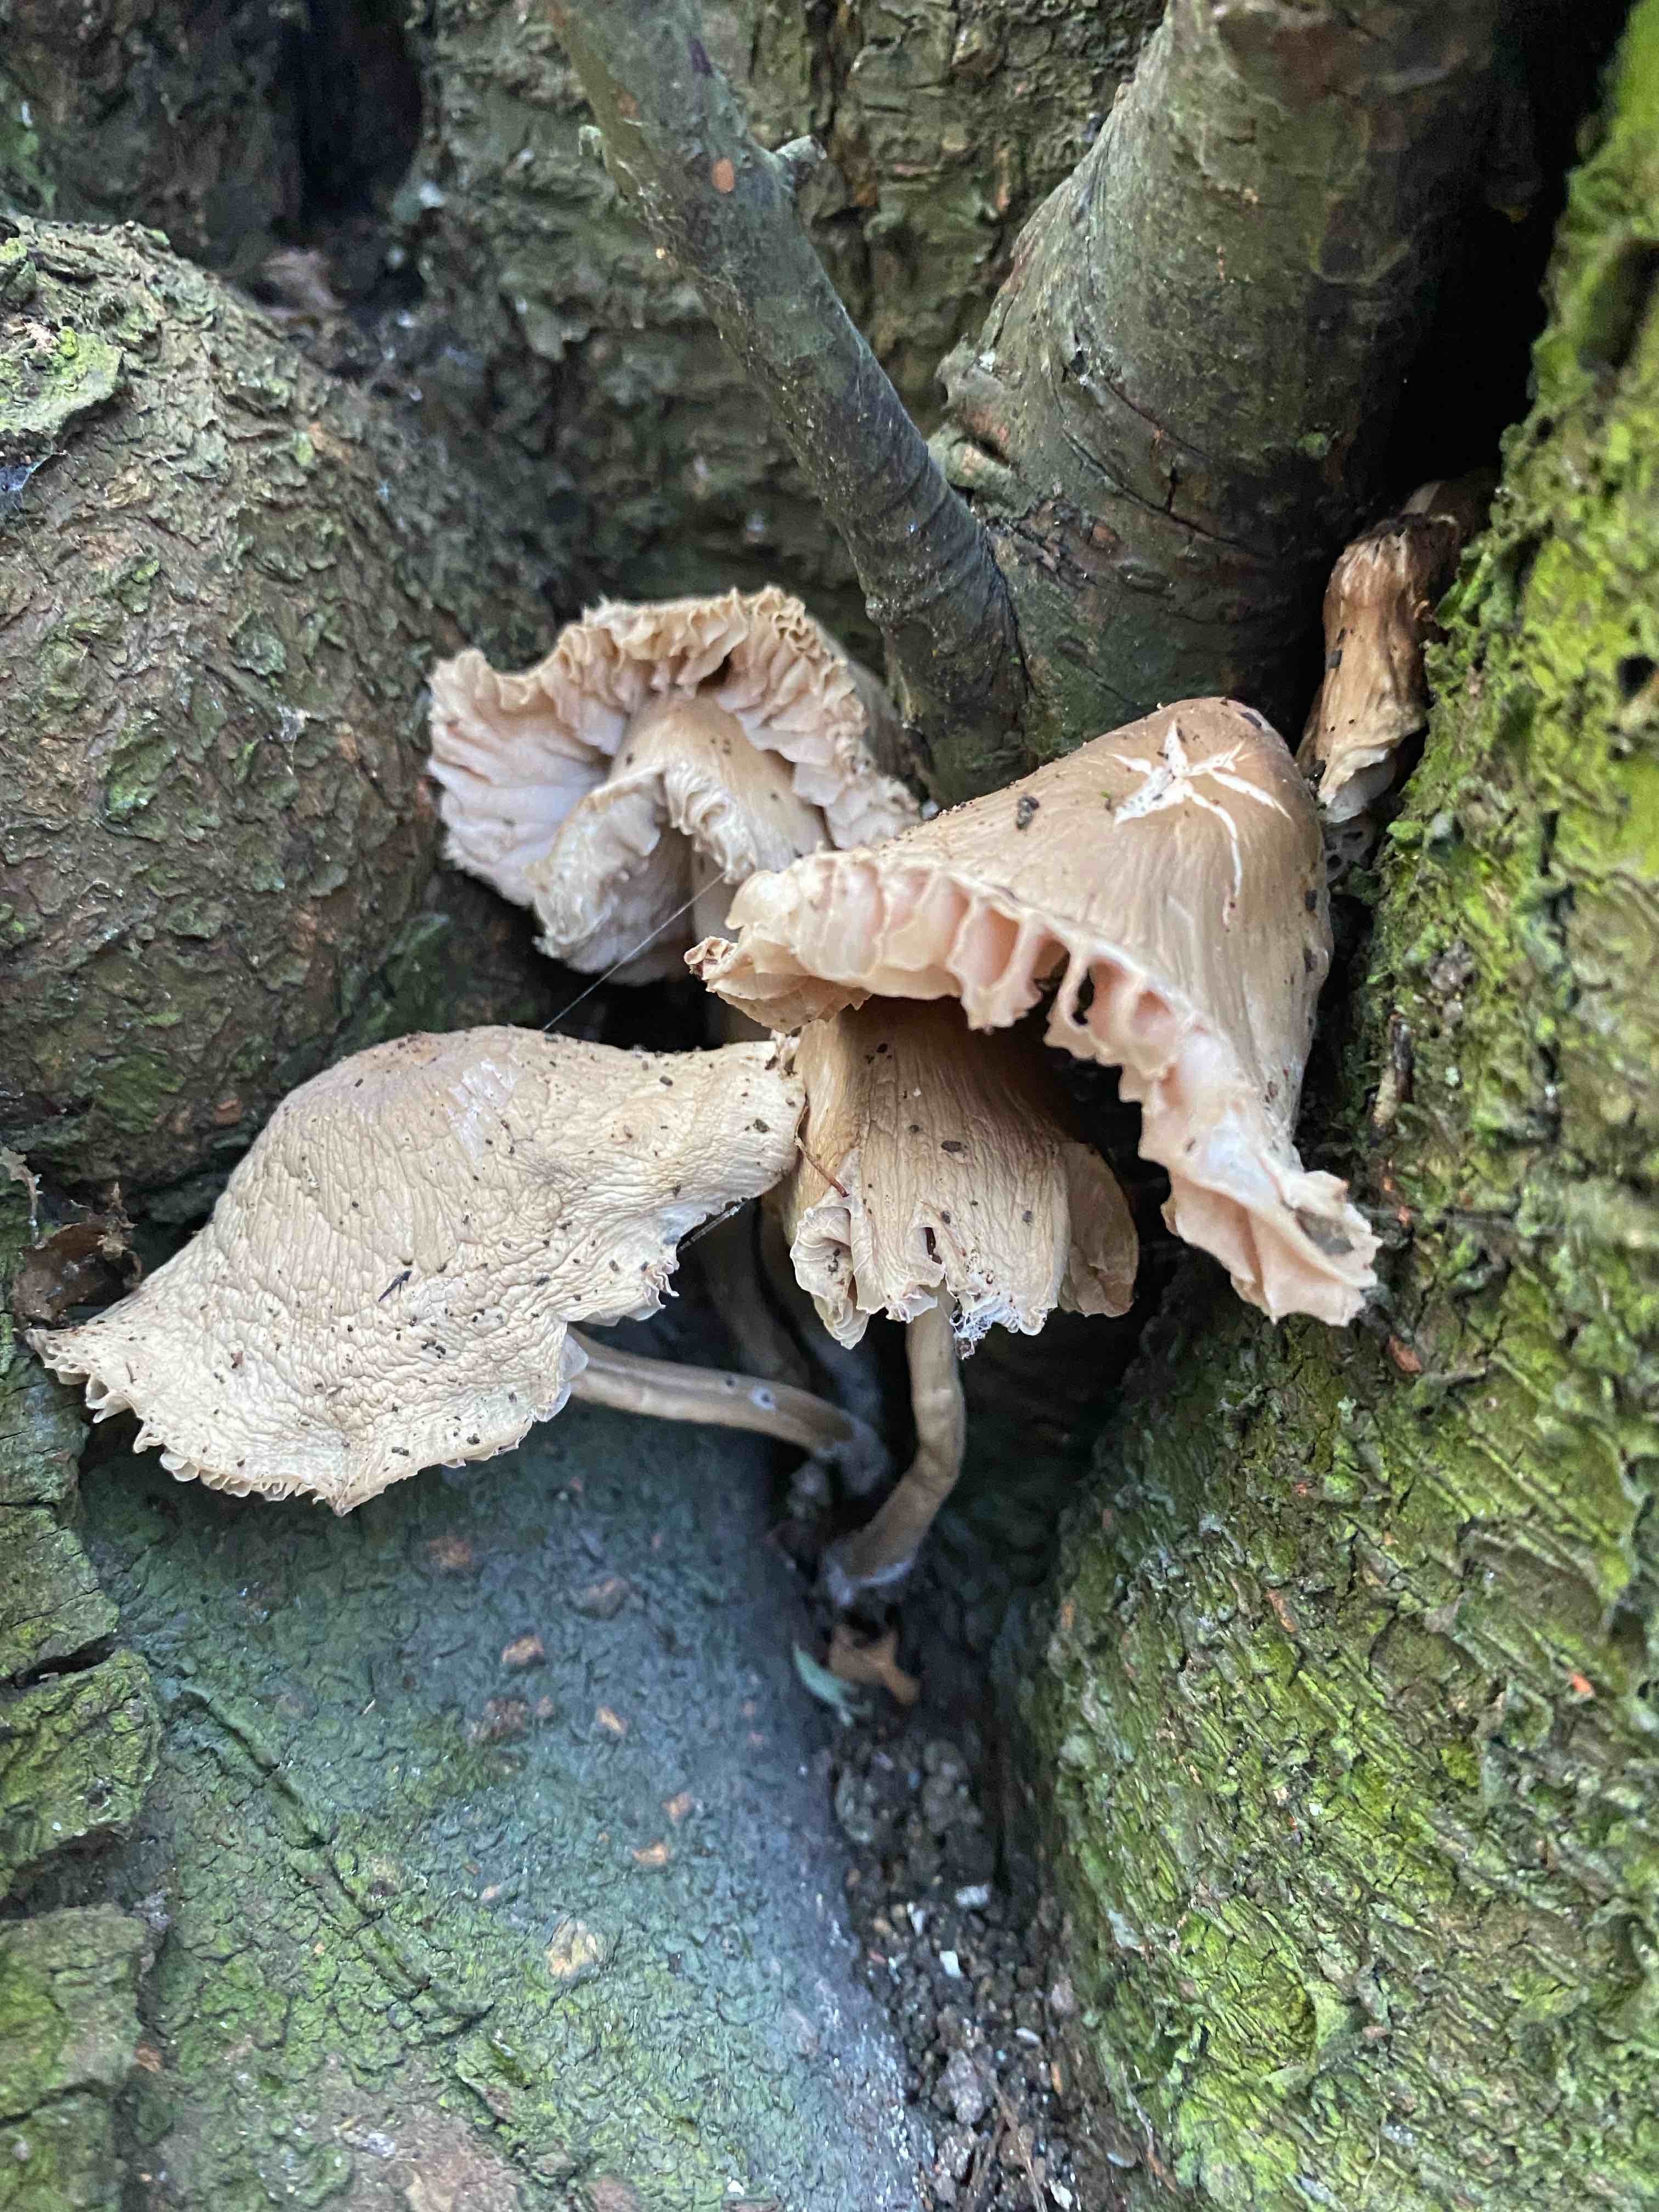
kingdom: Fungi
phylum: Basidiomycota
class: Agaricomycetes
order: Agaricales
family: Mycenaceae
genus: Mycena
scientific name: Mycena galericulata
